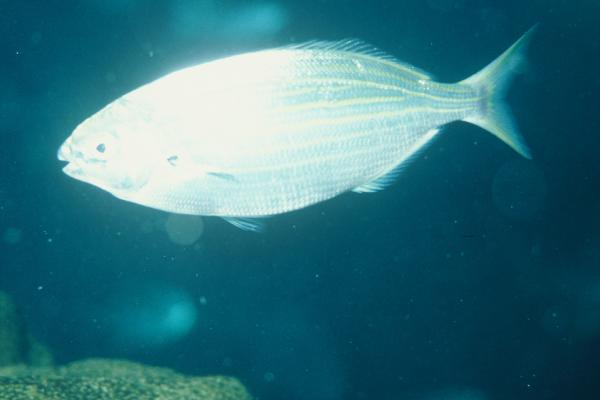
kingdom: Animalia
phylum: Chordata
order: Perciformes
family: Siganidae
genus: Siganus
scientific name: Siganus rivulatus
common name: Marbled spinefoot
